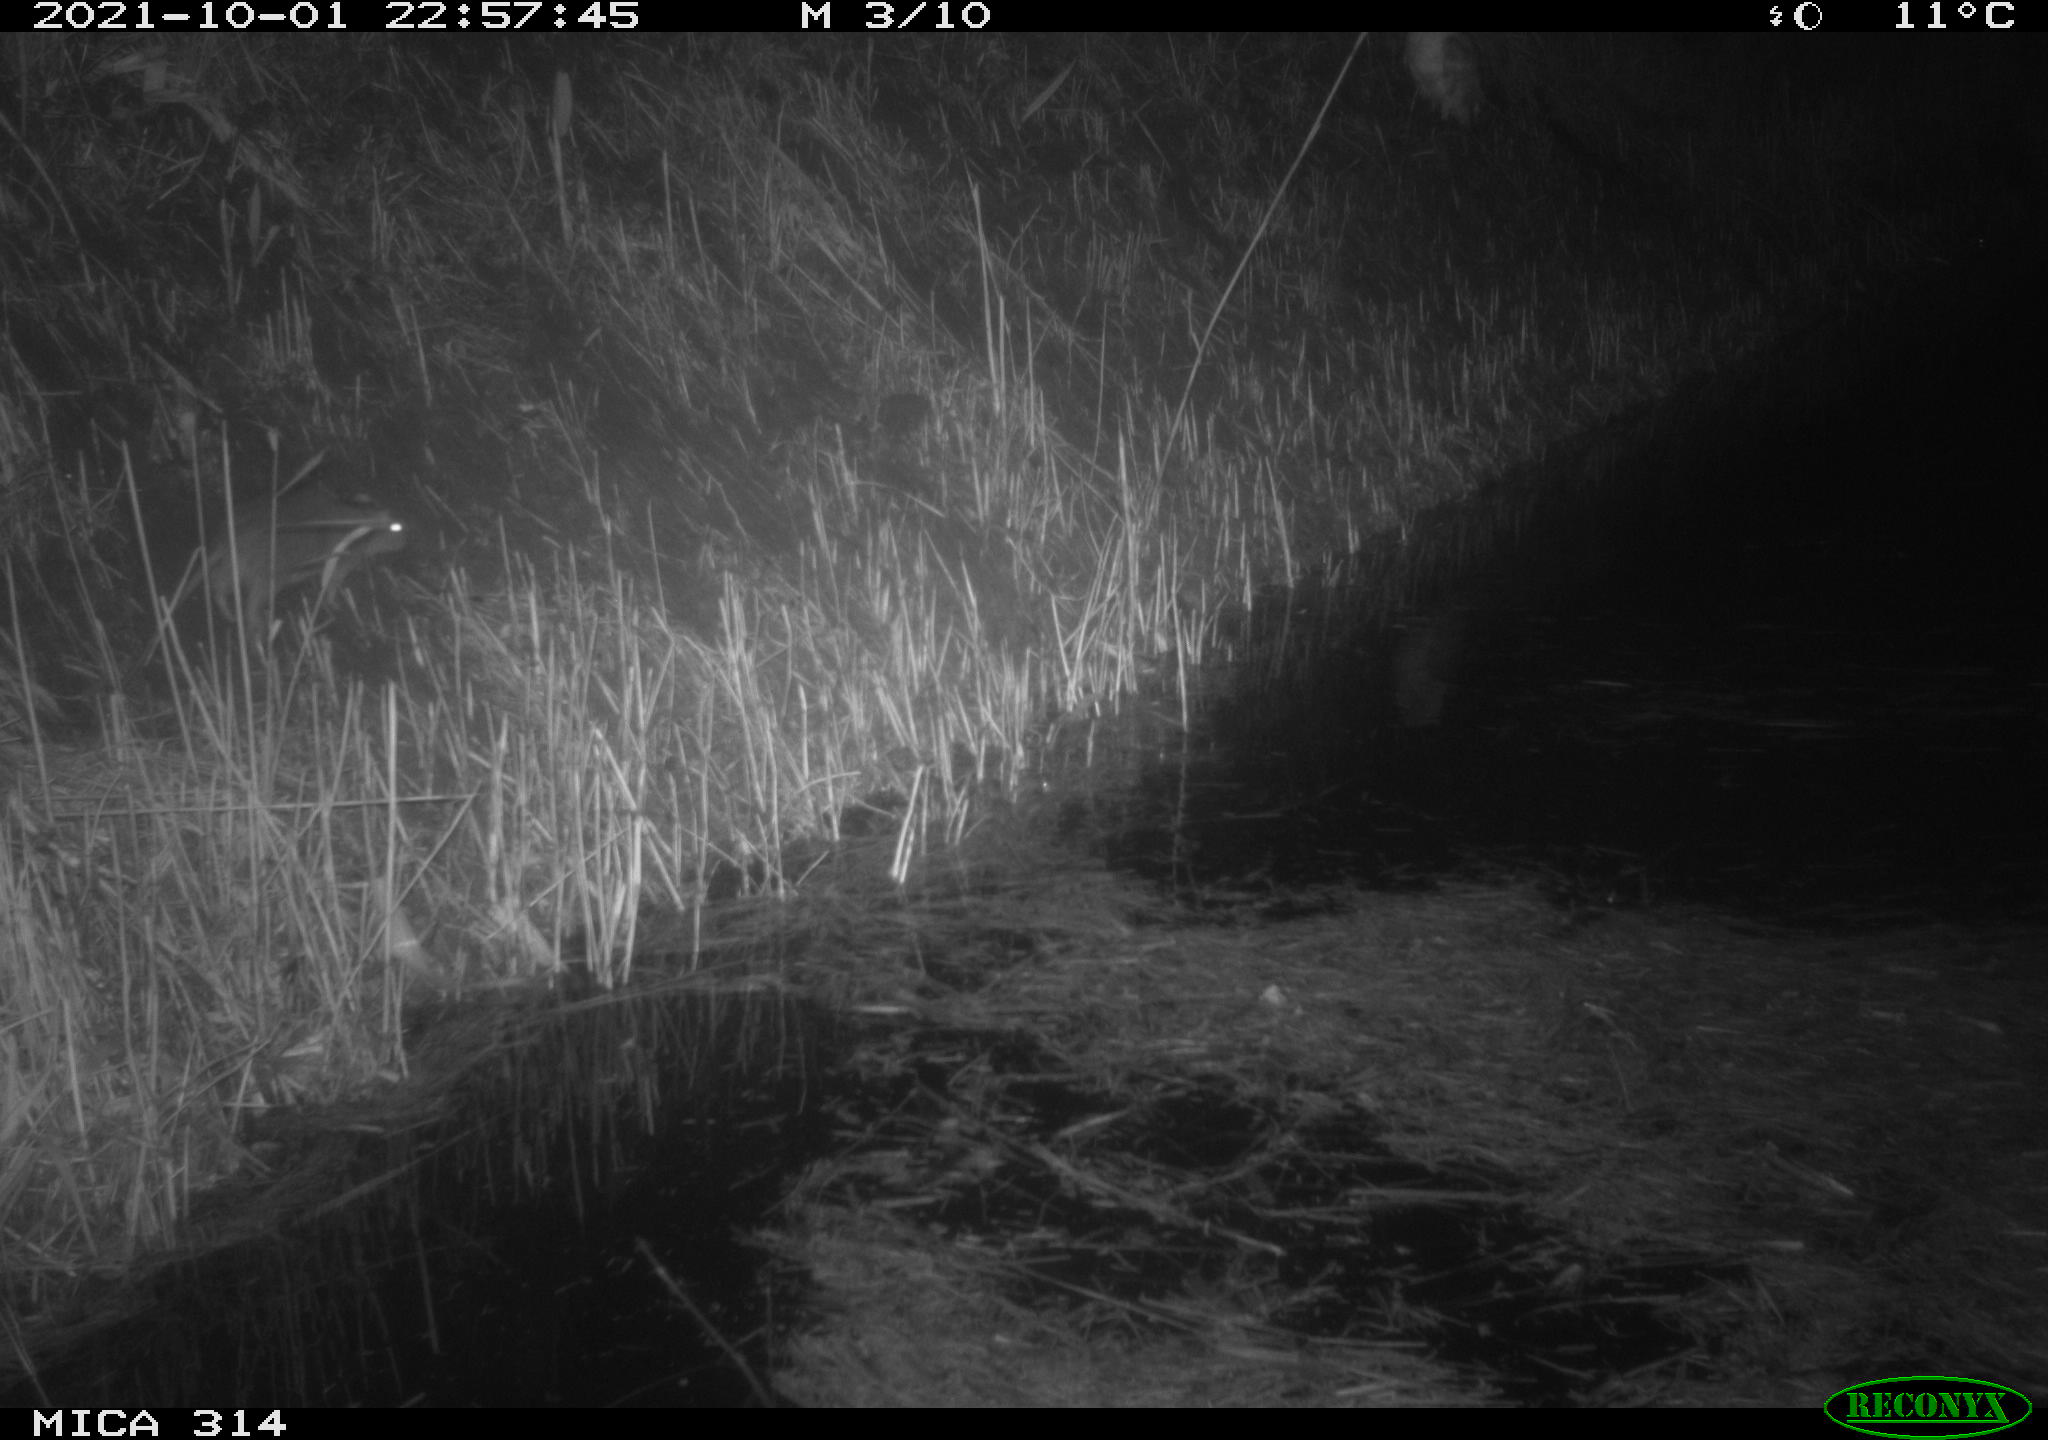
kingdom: Animalia
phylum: Chordata
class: Mammalia
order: Rodentia
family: Muridae
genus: Rattus
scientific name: Rattus norvegicus
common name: Brown rat
